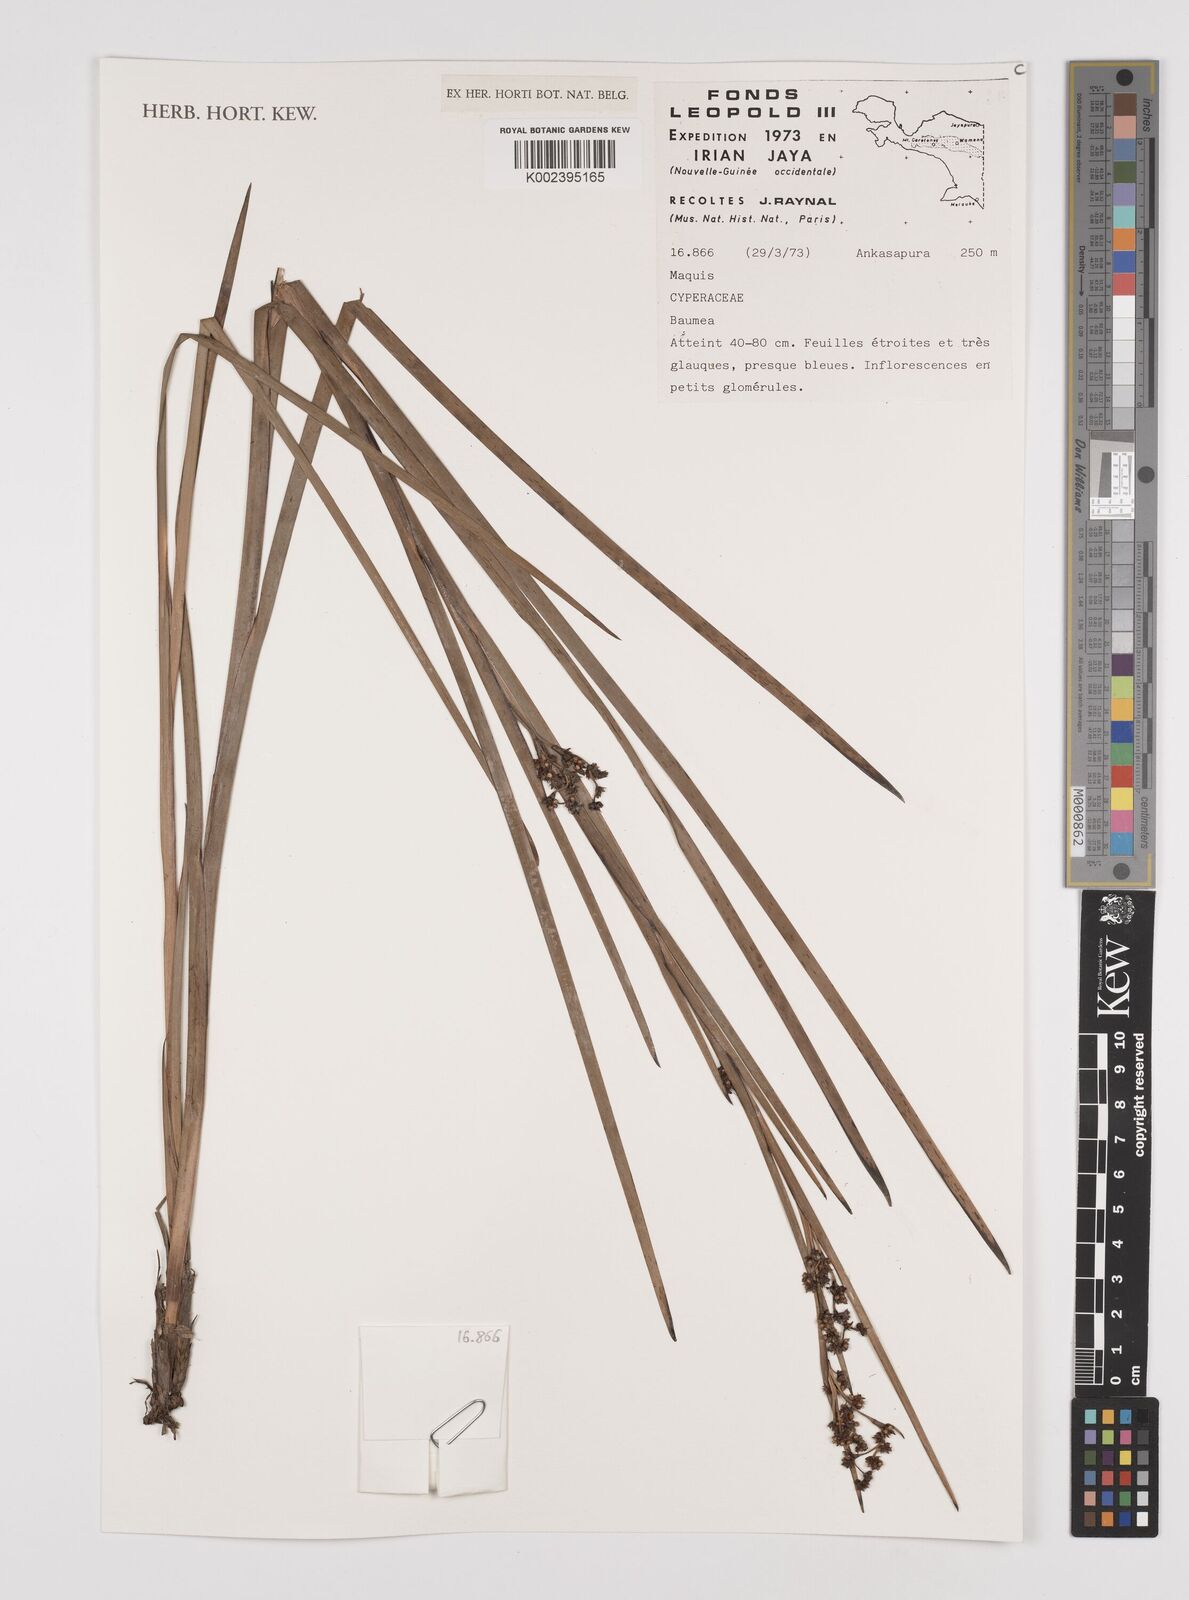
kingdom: Plantae
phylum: Tracheophyta
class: Liliopsida
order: Poales
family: Cyperaceae
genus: Machaerina
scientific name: Machaerina
